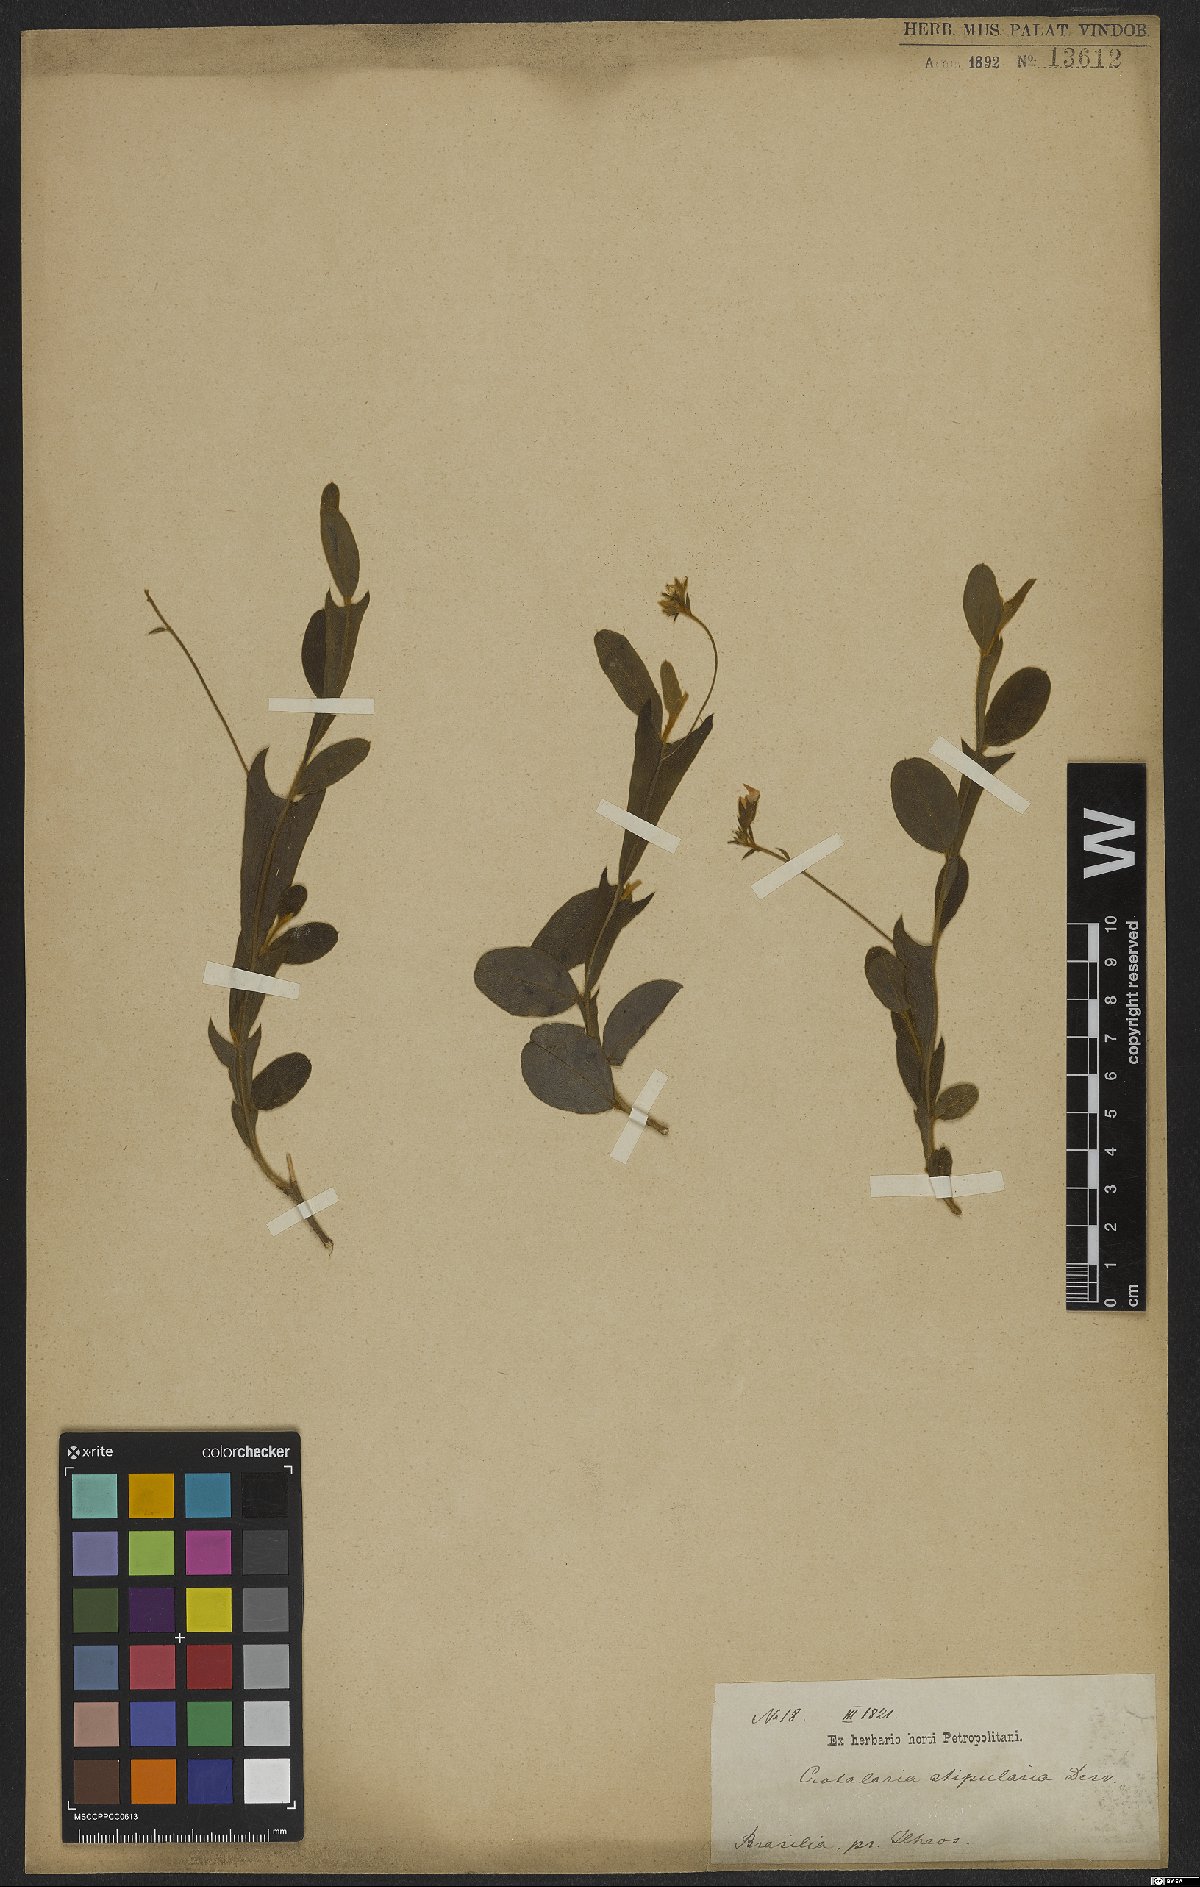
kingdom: Plantae
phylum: Tracheophyta
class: Magnoliopsida
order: Fabales
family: Fabaceae
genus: Crotalaria
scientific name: Crotalaria stipularia
